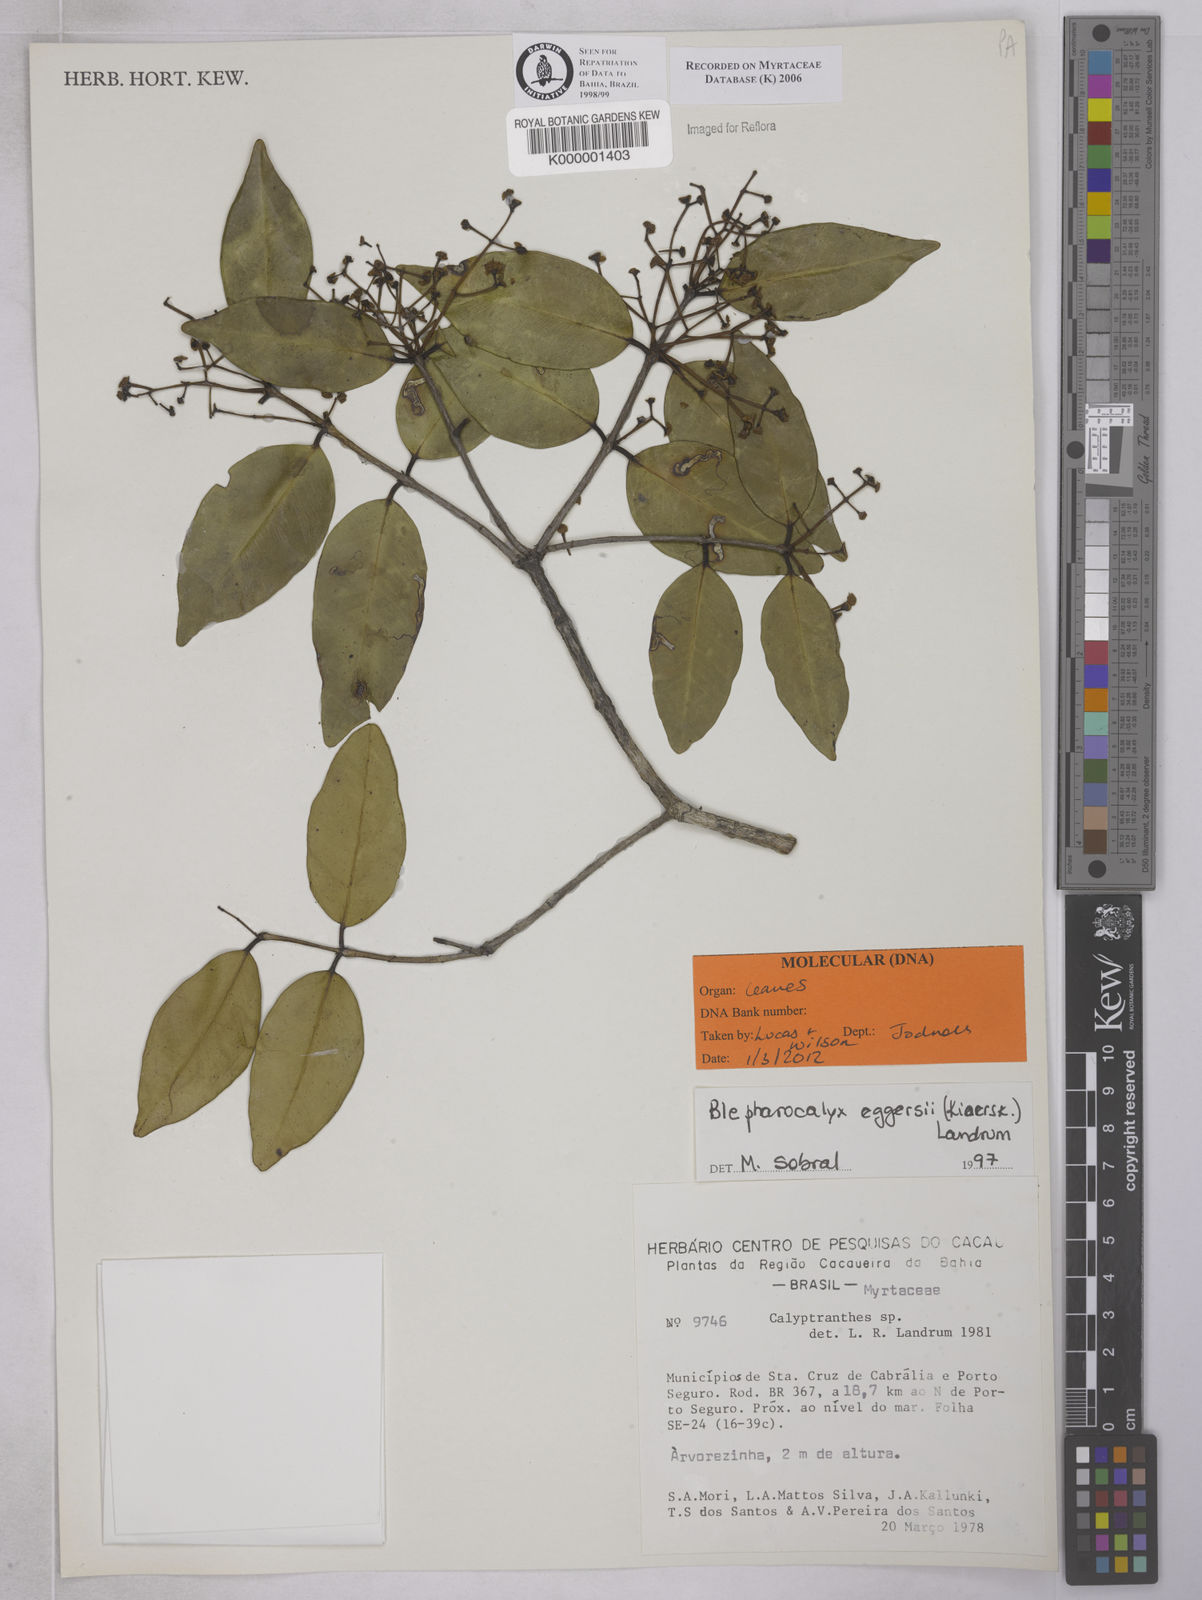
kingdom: Plantae
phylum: Tracheophyta
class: Magnoliopsida
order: Myrtales
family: Myrtaceae
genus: Calyptranthes
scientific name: Calyptranthes
